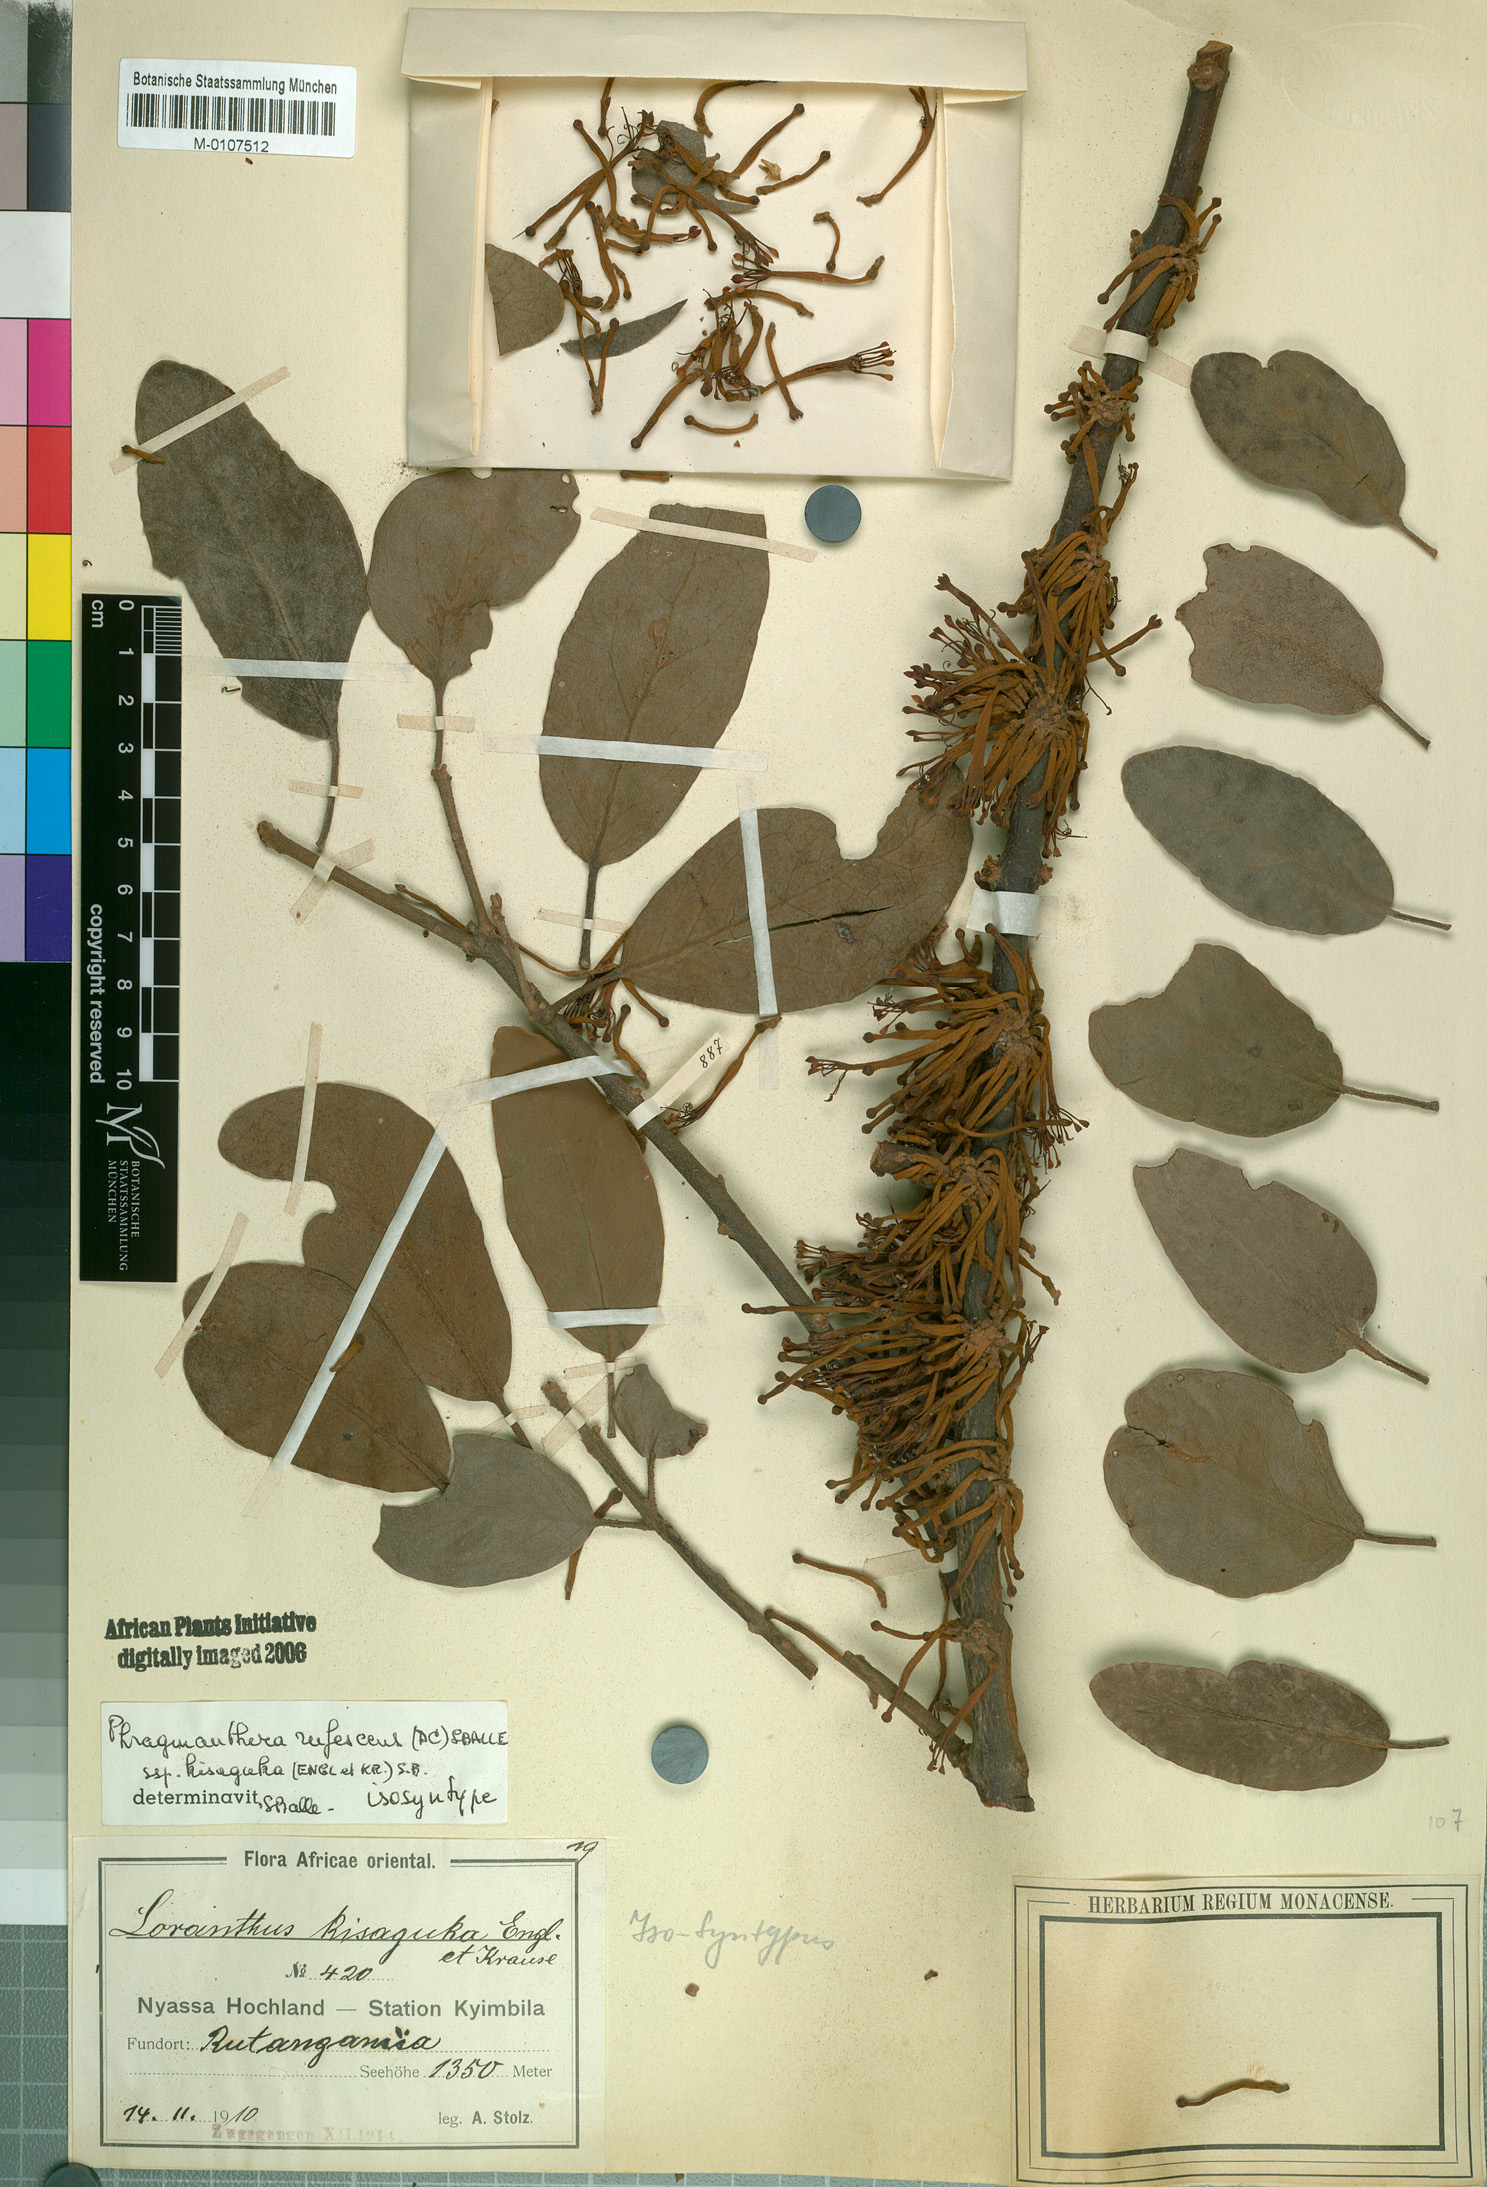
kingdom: Plantae
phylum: Tracheophyta
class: Magnoliopsida
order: Santalales
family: Loranthaceae
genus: Phragmanthera
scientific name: Phragmanthera usuiensis
